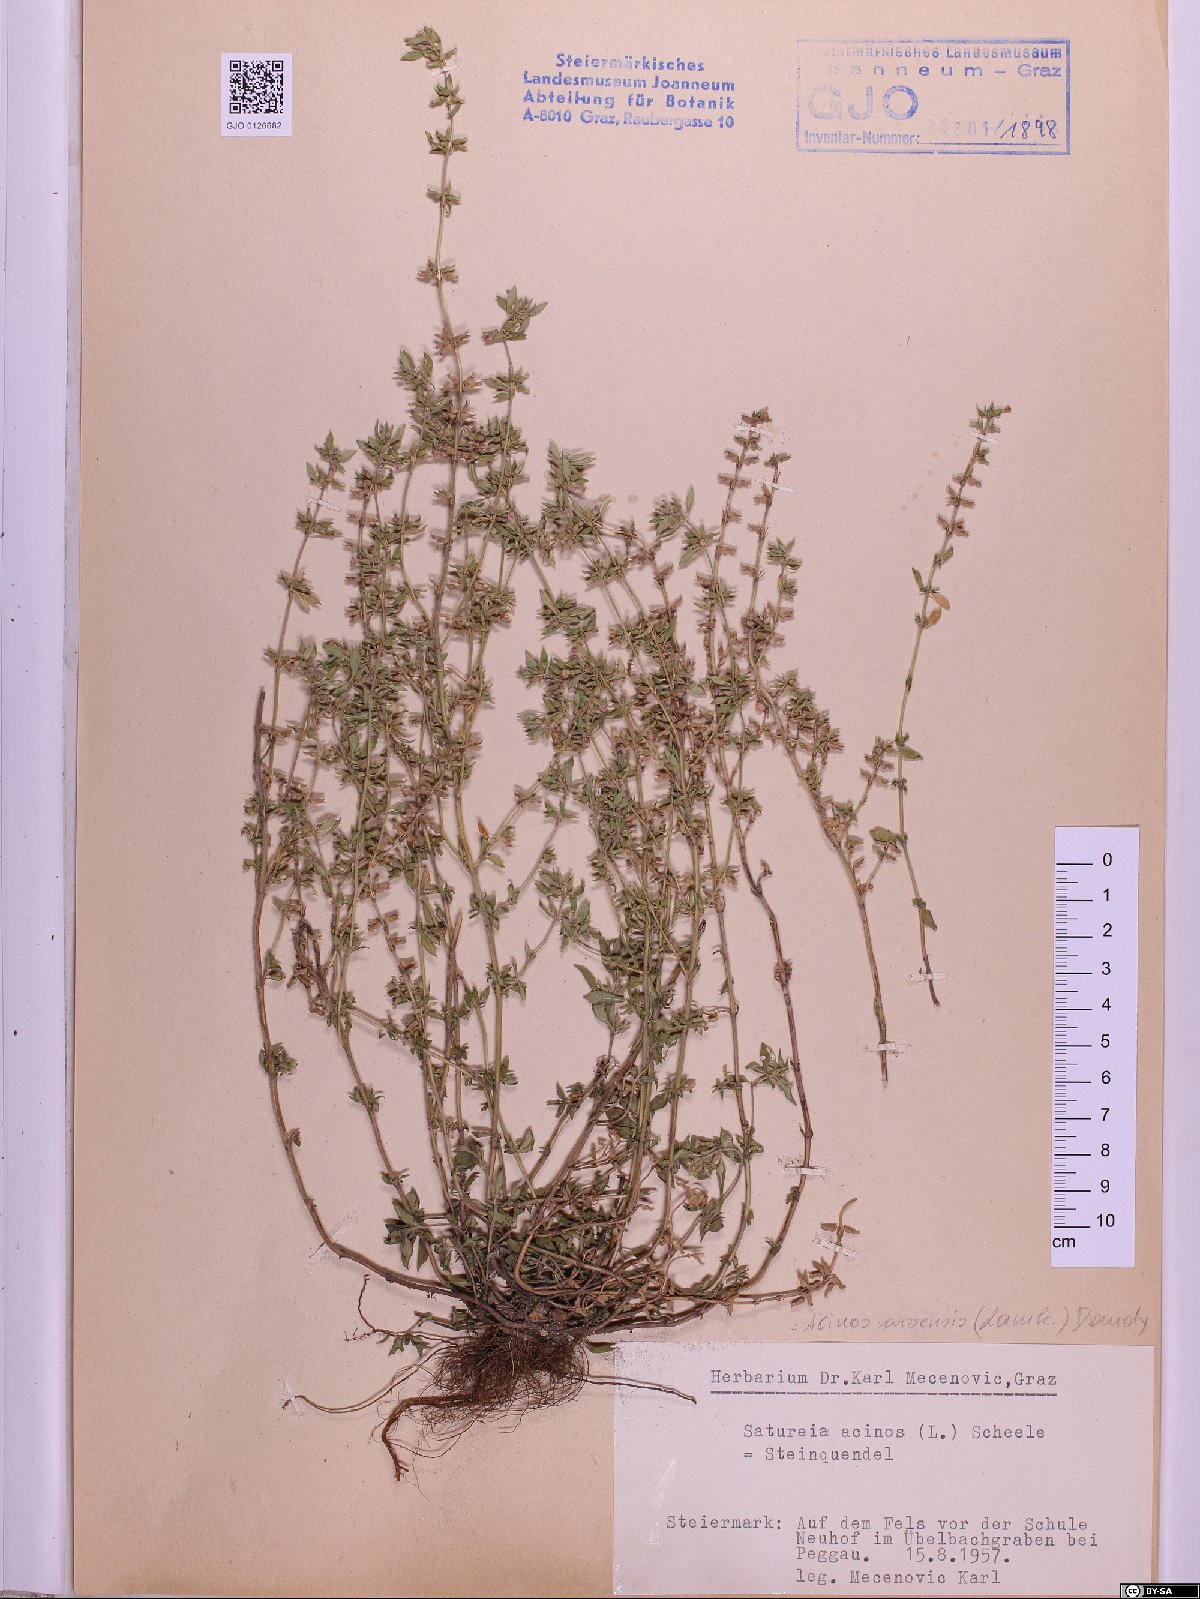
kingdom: Plantae
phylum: Tracheophyta
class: Magnoliopsida
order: Lamiales
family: Lamiaceae
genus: Clinopodium
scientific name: Clinopodium acinos
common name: Basil thyme
